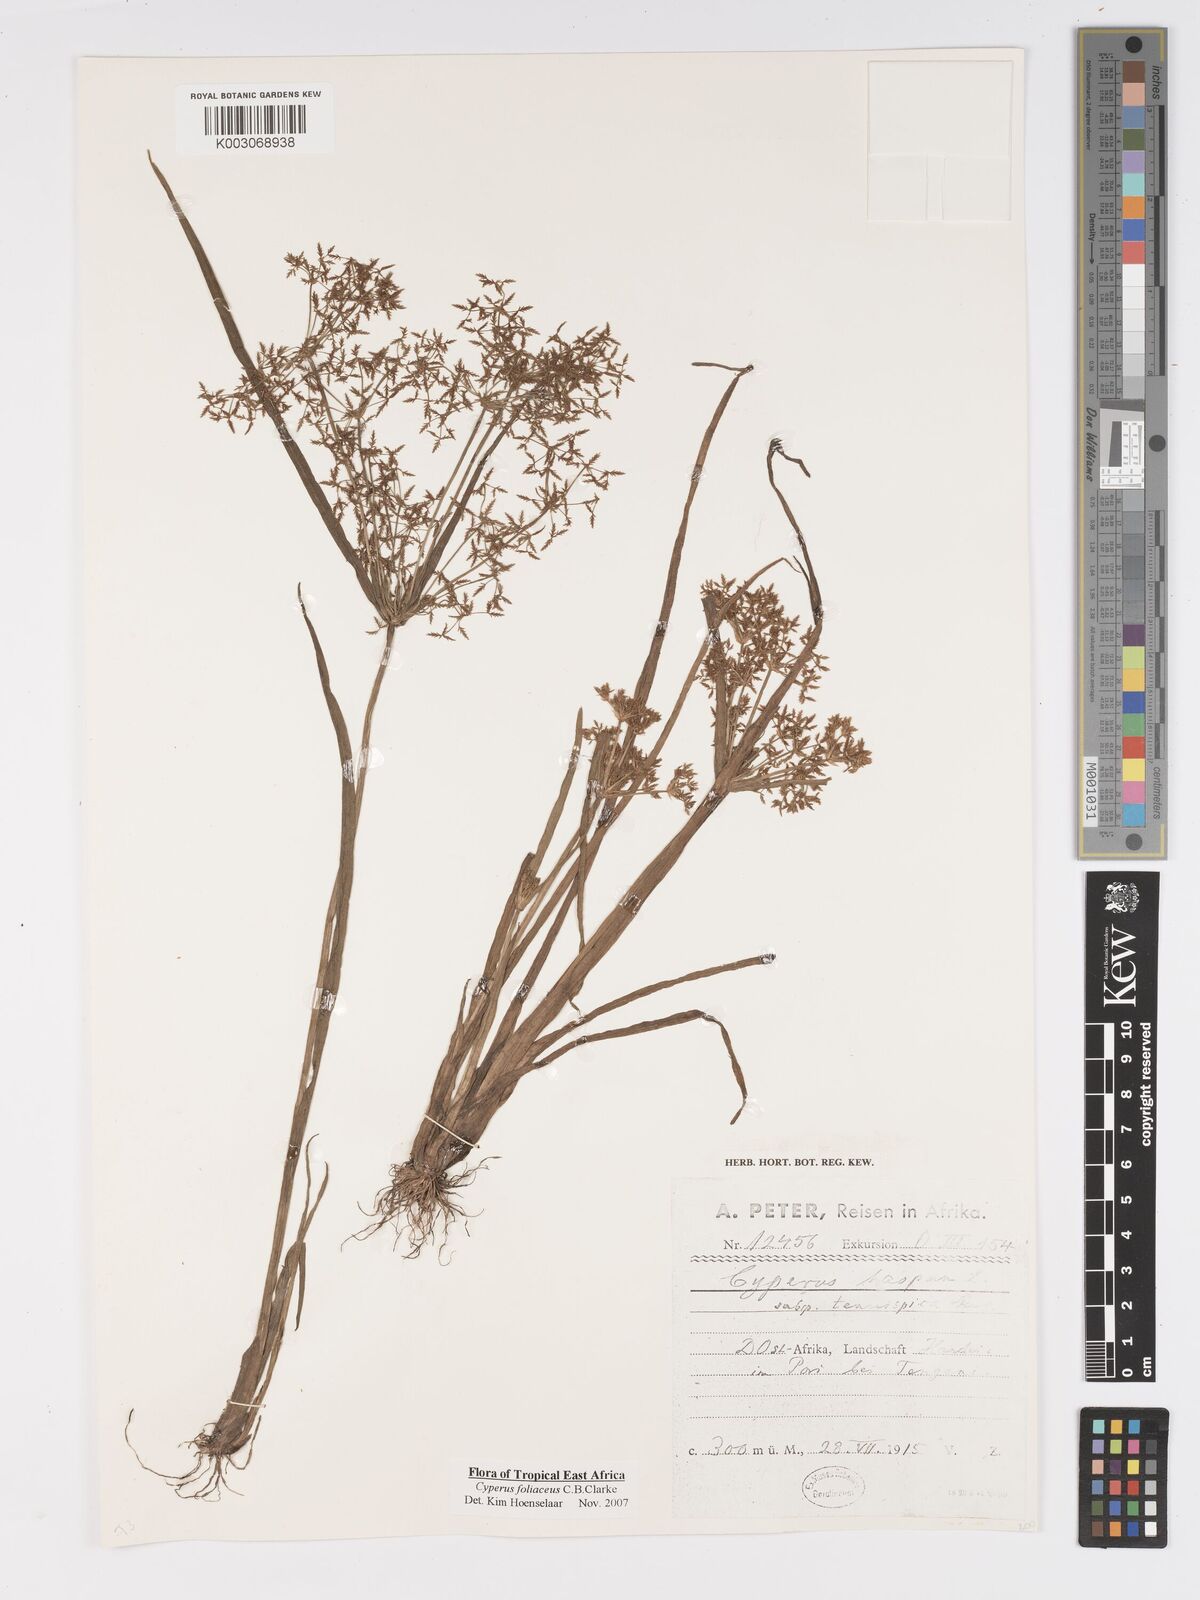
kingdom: Plantae
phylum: Tracheophyta
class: Liliopsida
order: Poales
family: Cyperaceae
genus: Cyperus
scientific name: Cyperus foliaceus
